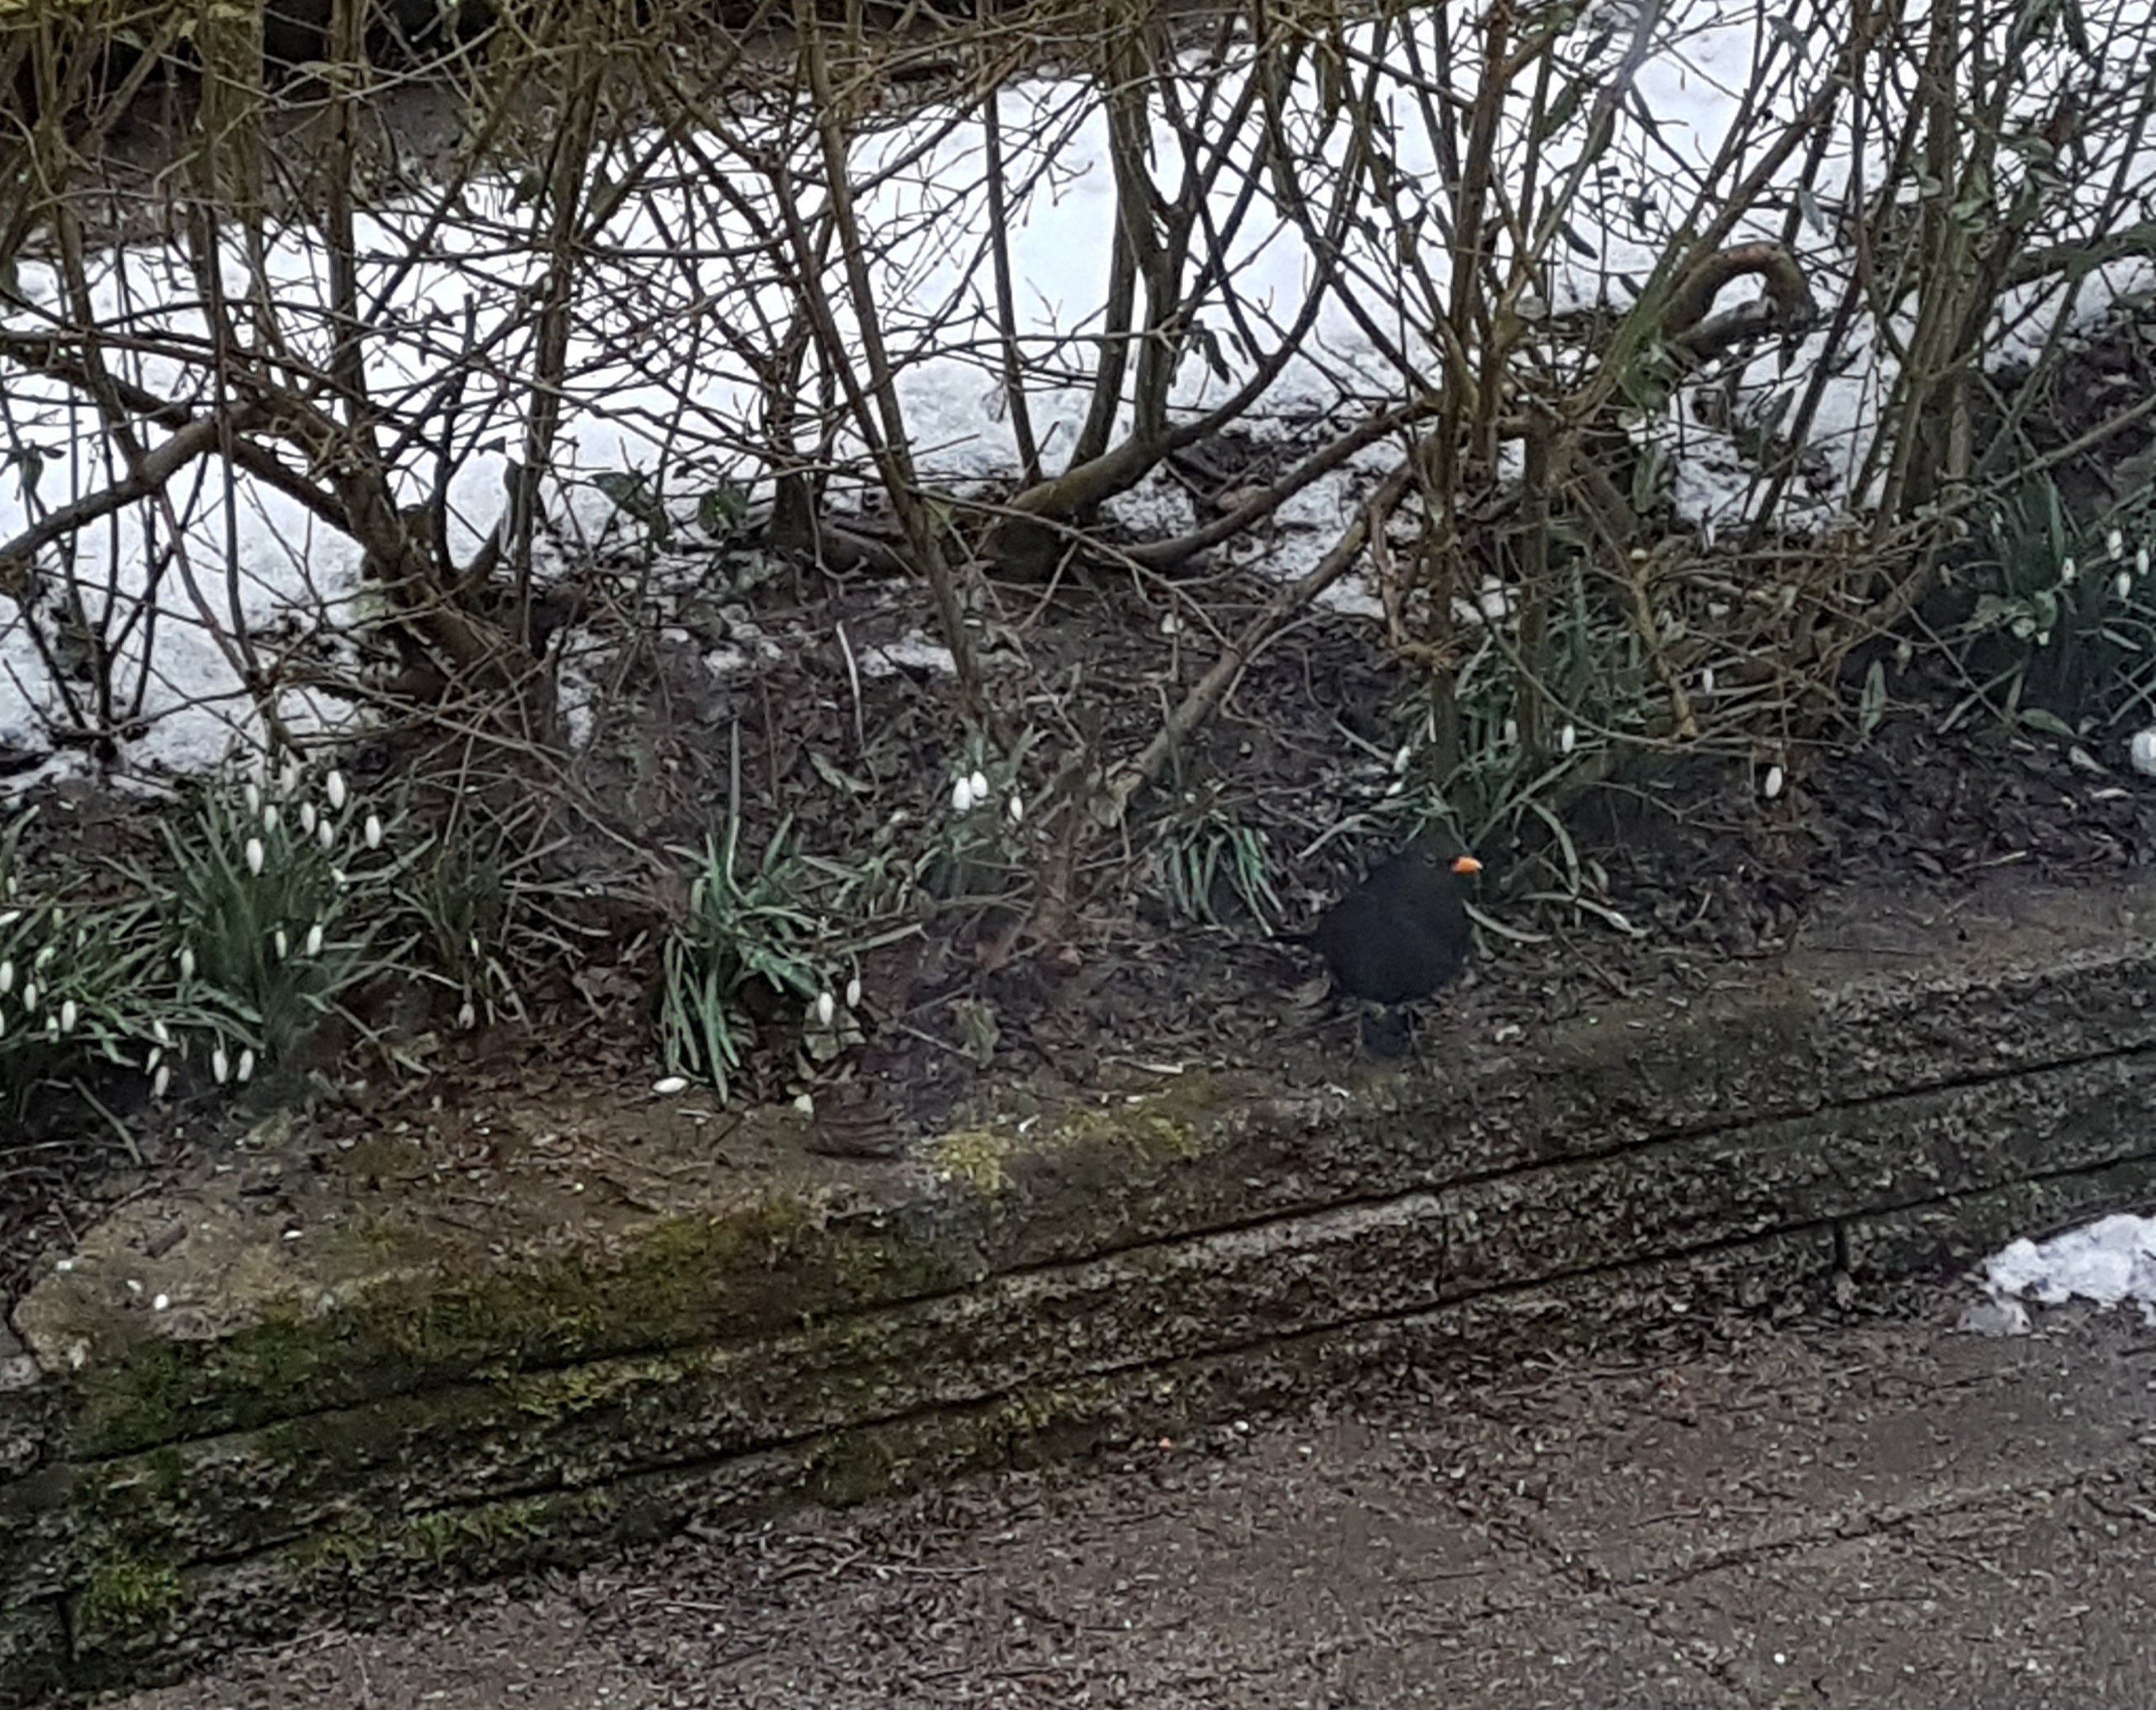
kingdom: Animalia
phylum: Chordata
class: Aves
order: Passeriformes
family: Turdidae
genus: Turdus
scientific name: Turdus merula
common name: Solsort
